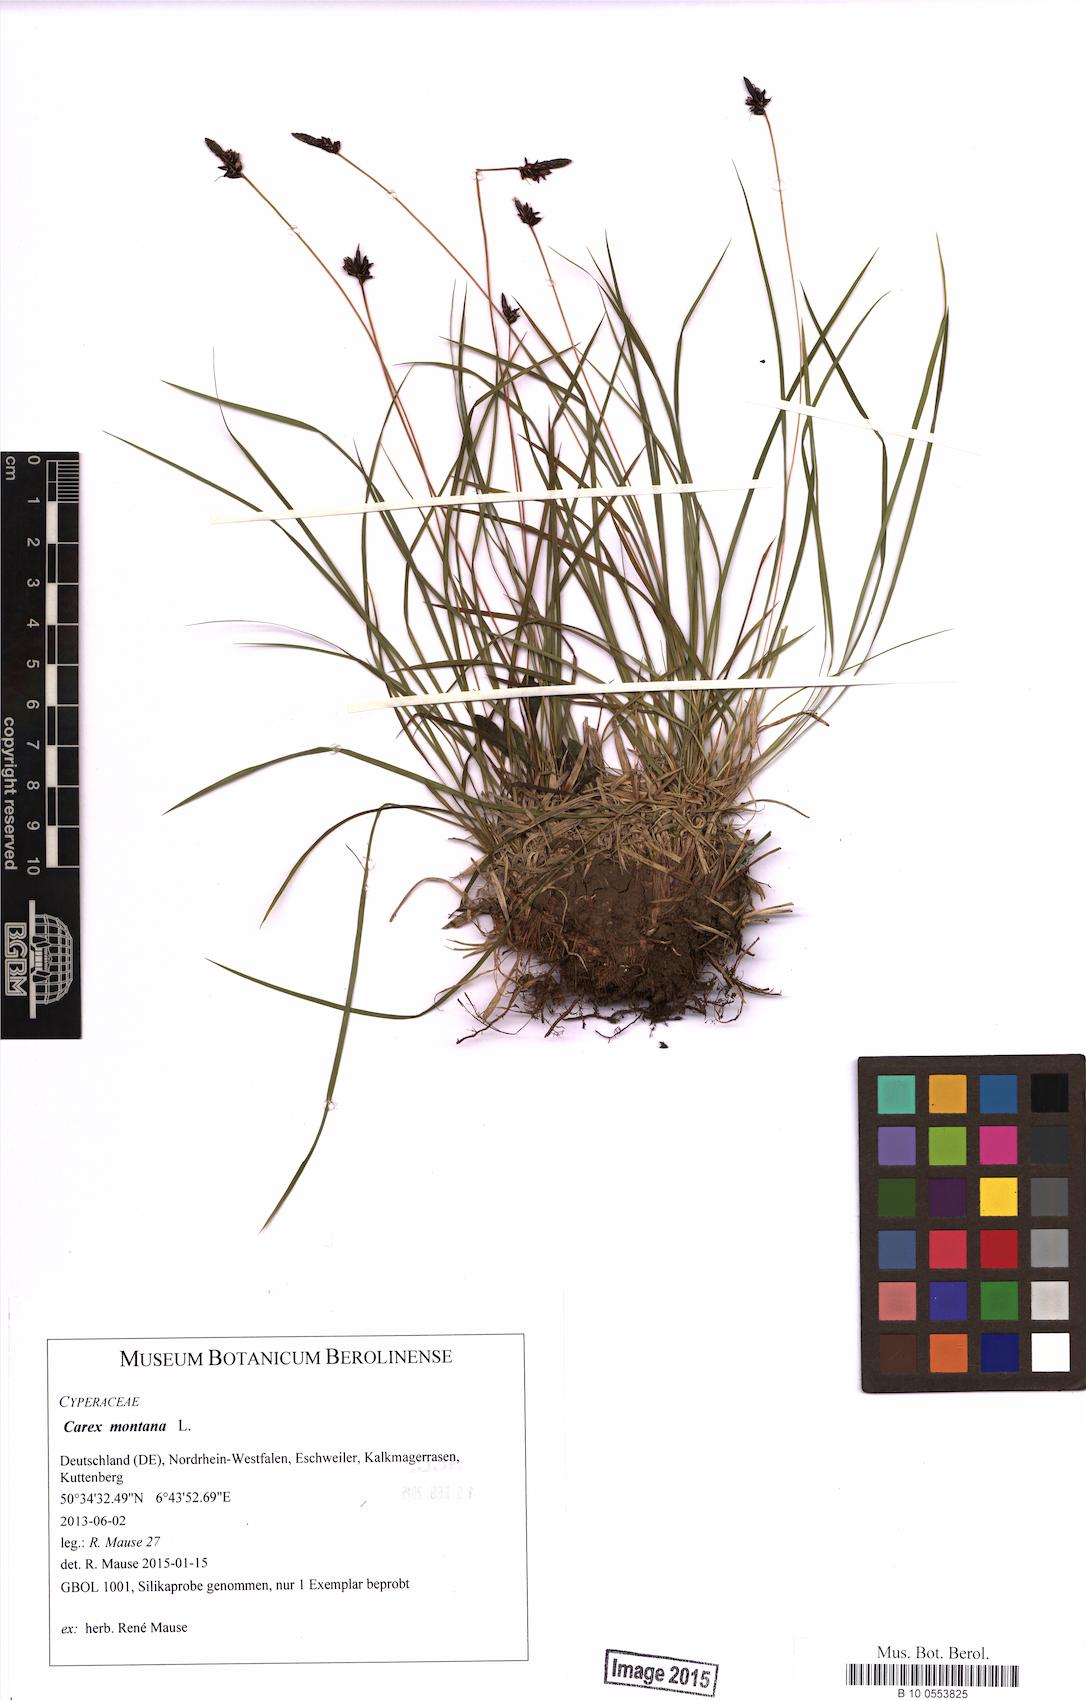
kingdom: Plantae
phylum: Tracheophyta
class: Liliopsida
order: Poales
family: Cyperaceae
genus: Carex
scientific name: Carex montana
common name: Soft-leaved sedge
